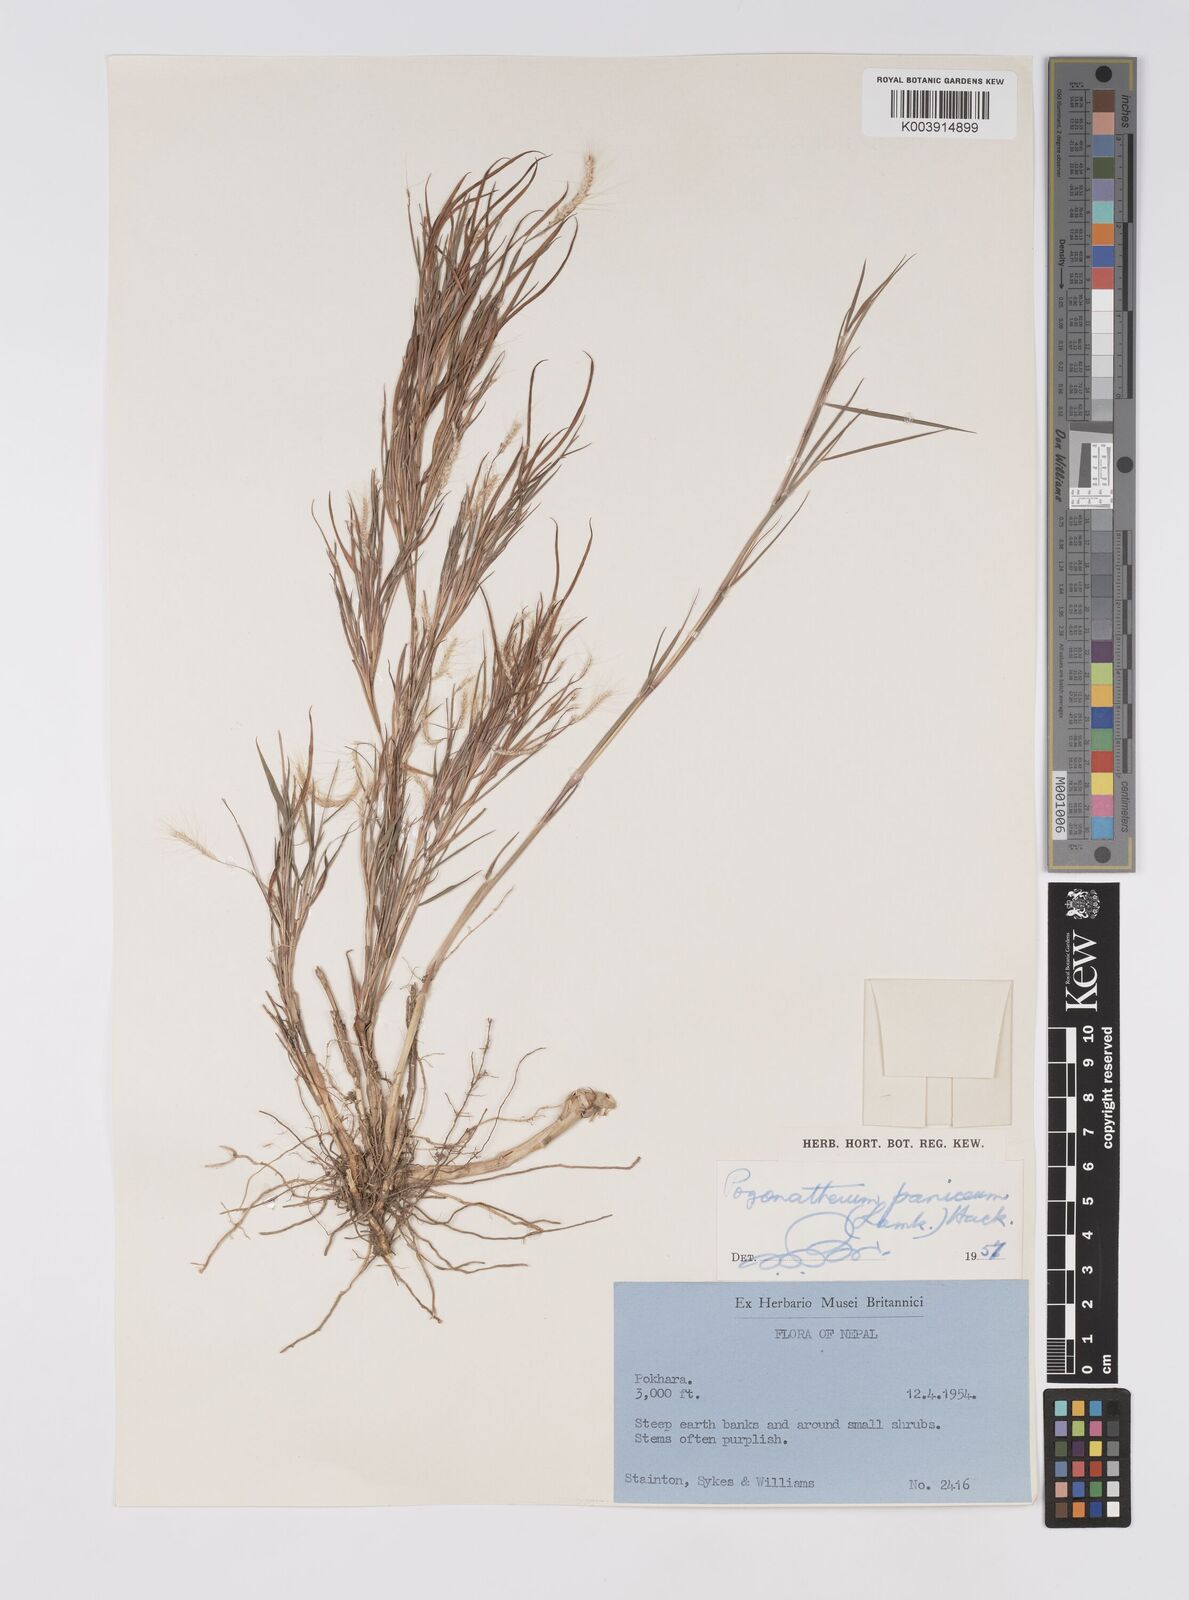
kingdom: Plantae
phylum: Tracheophyta
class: Liliopsida
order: Poales
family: Poaceae
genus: Pogonatherum
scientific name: Pogonatherum paniceum
